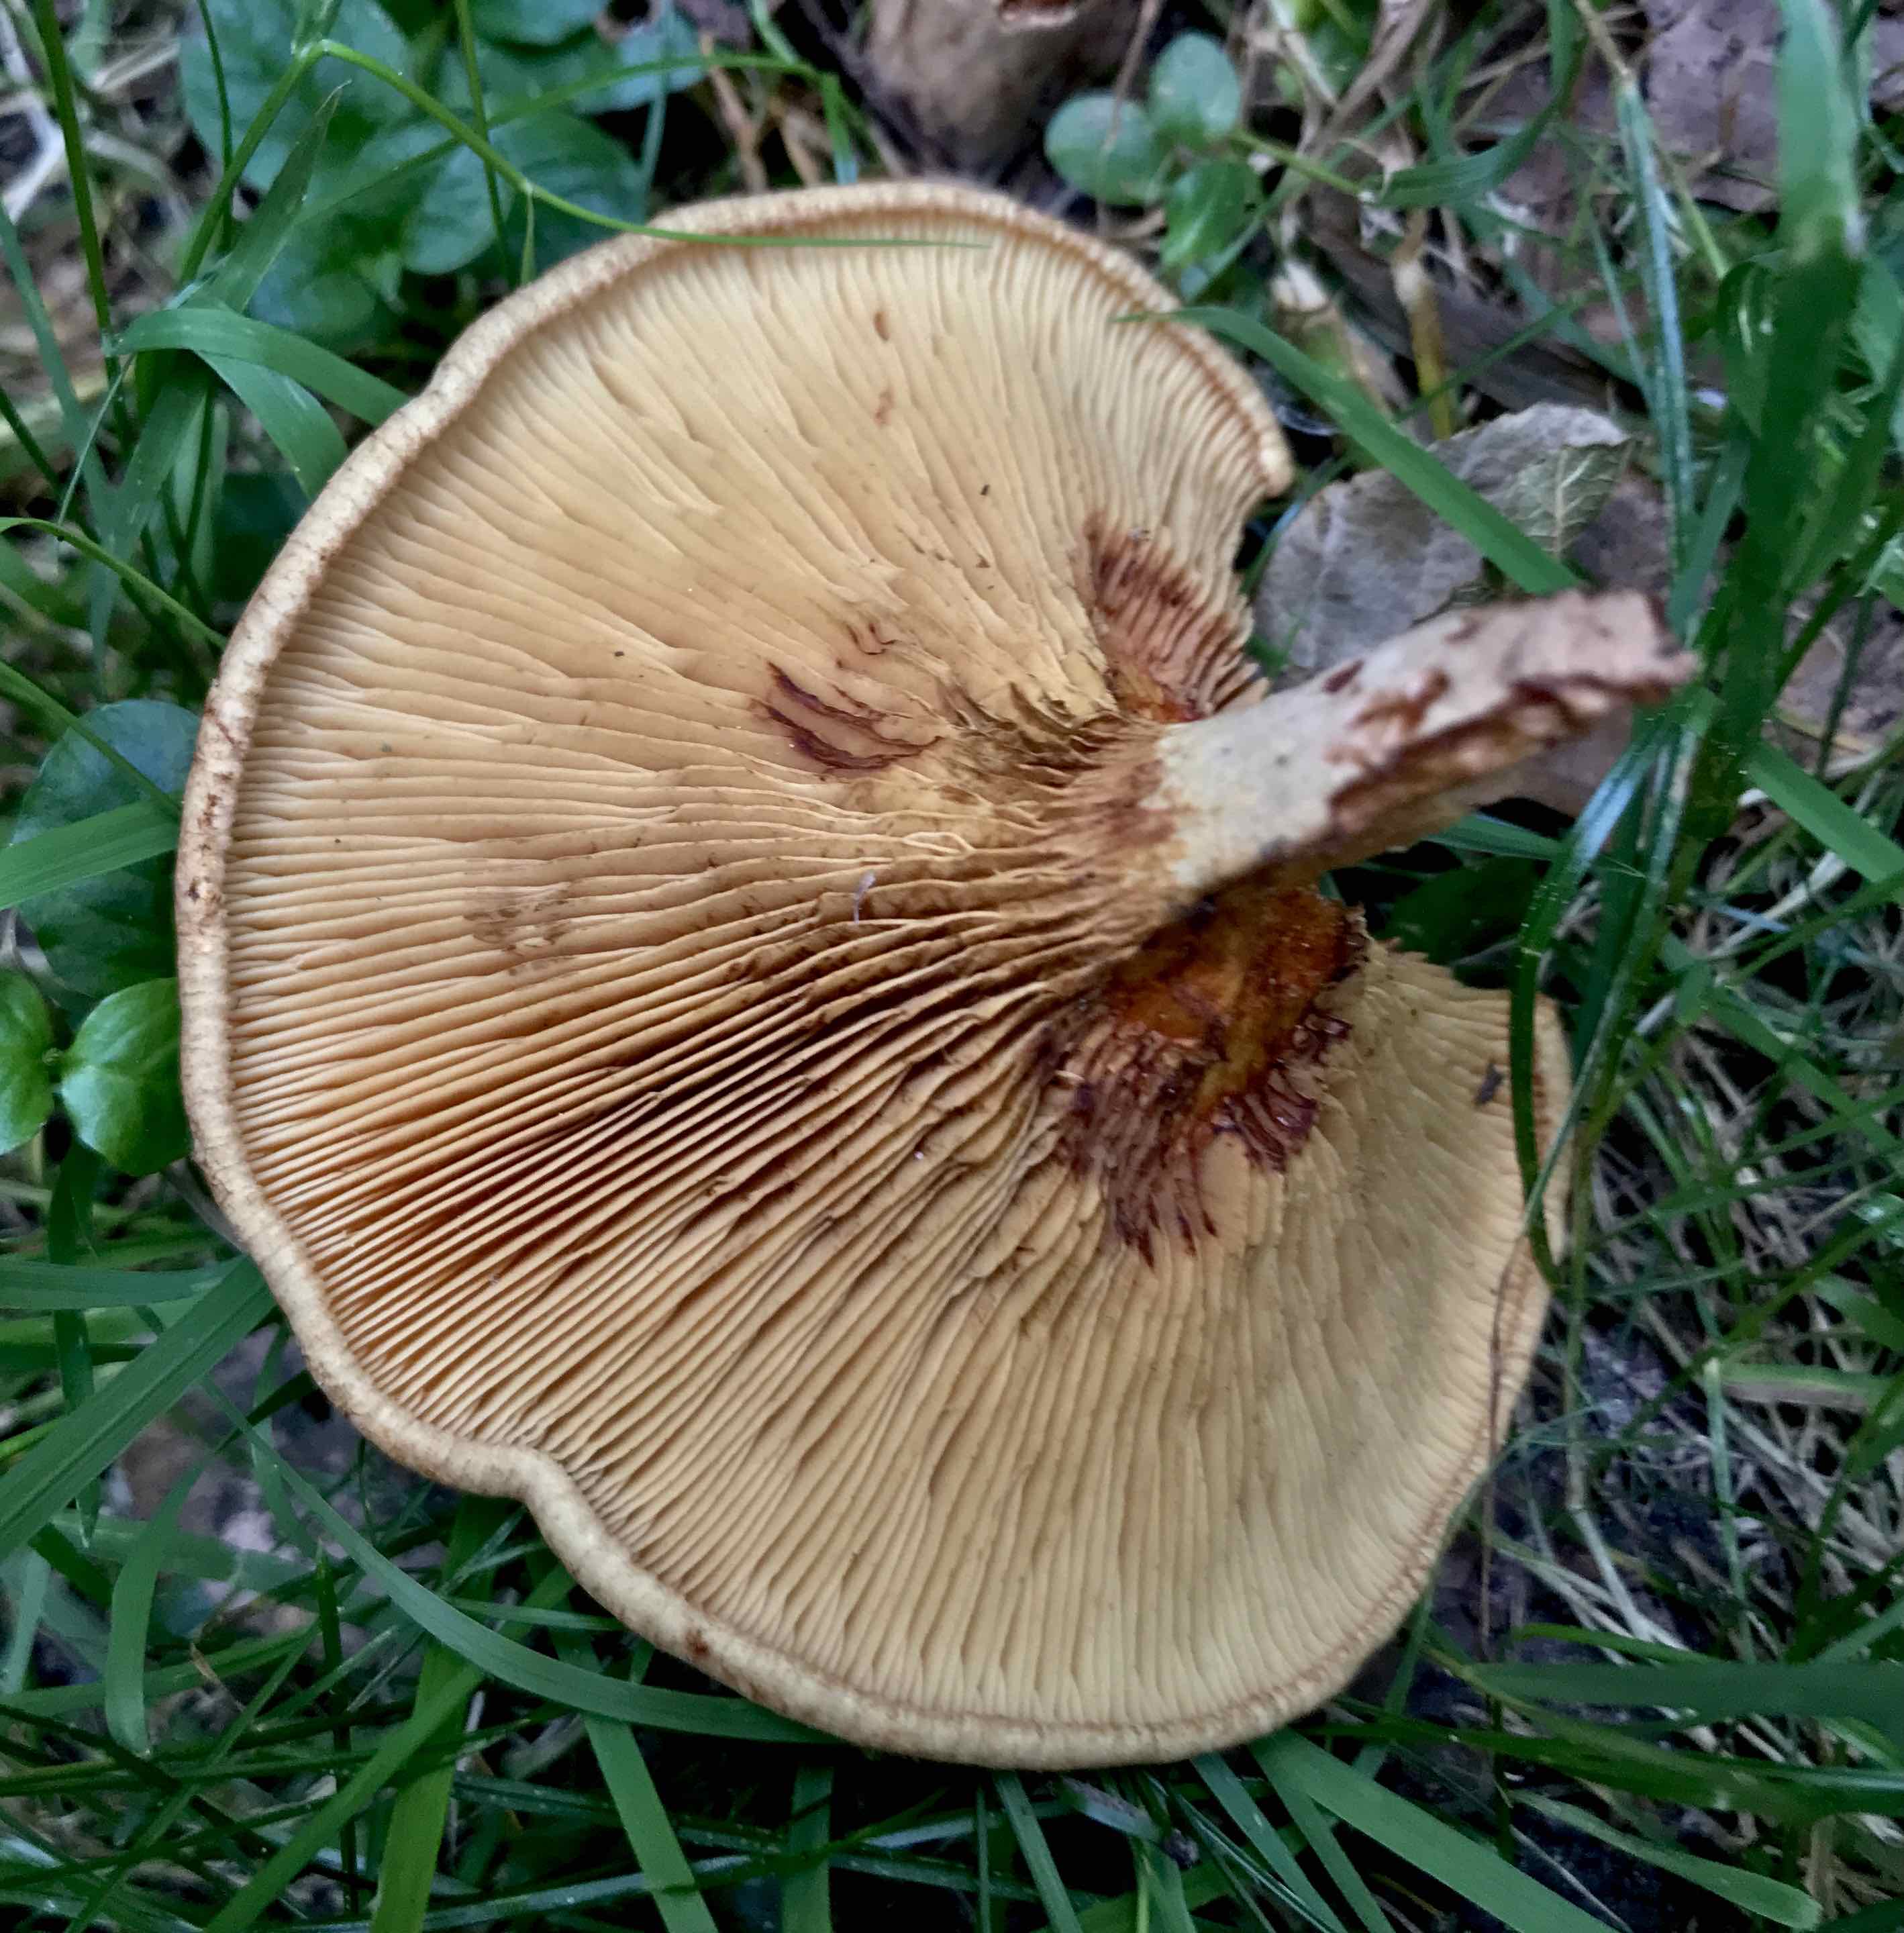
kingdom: Fungi
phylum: Basidiomycota
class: Agaricomycetes
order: Boletales
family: Paxillaceae
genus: Paxillus
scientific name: Paxillus involutus
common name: almindelig netbladhat
